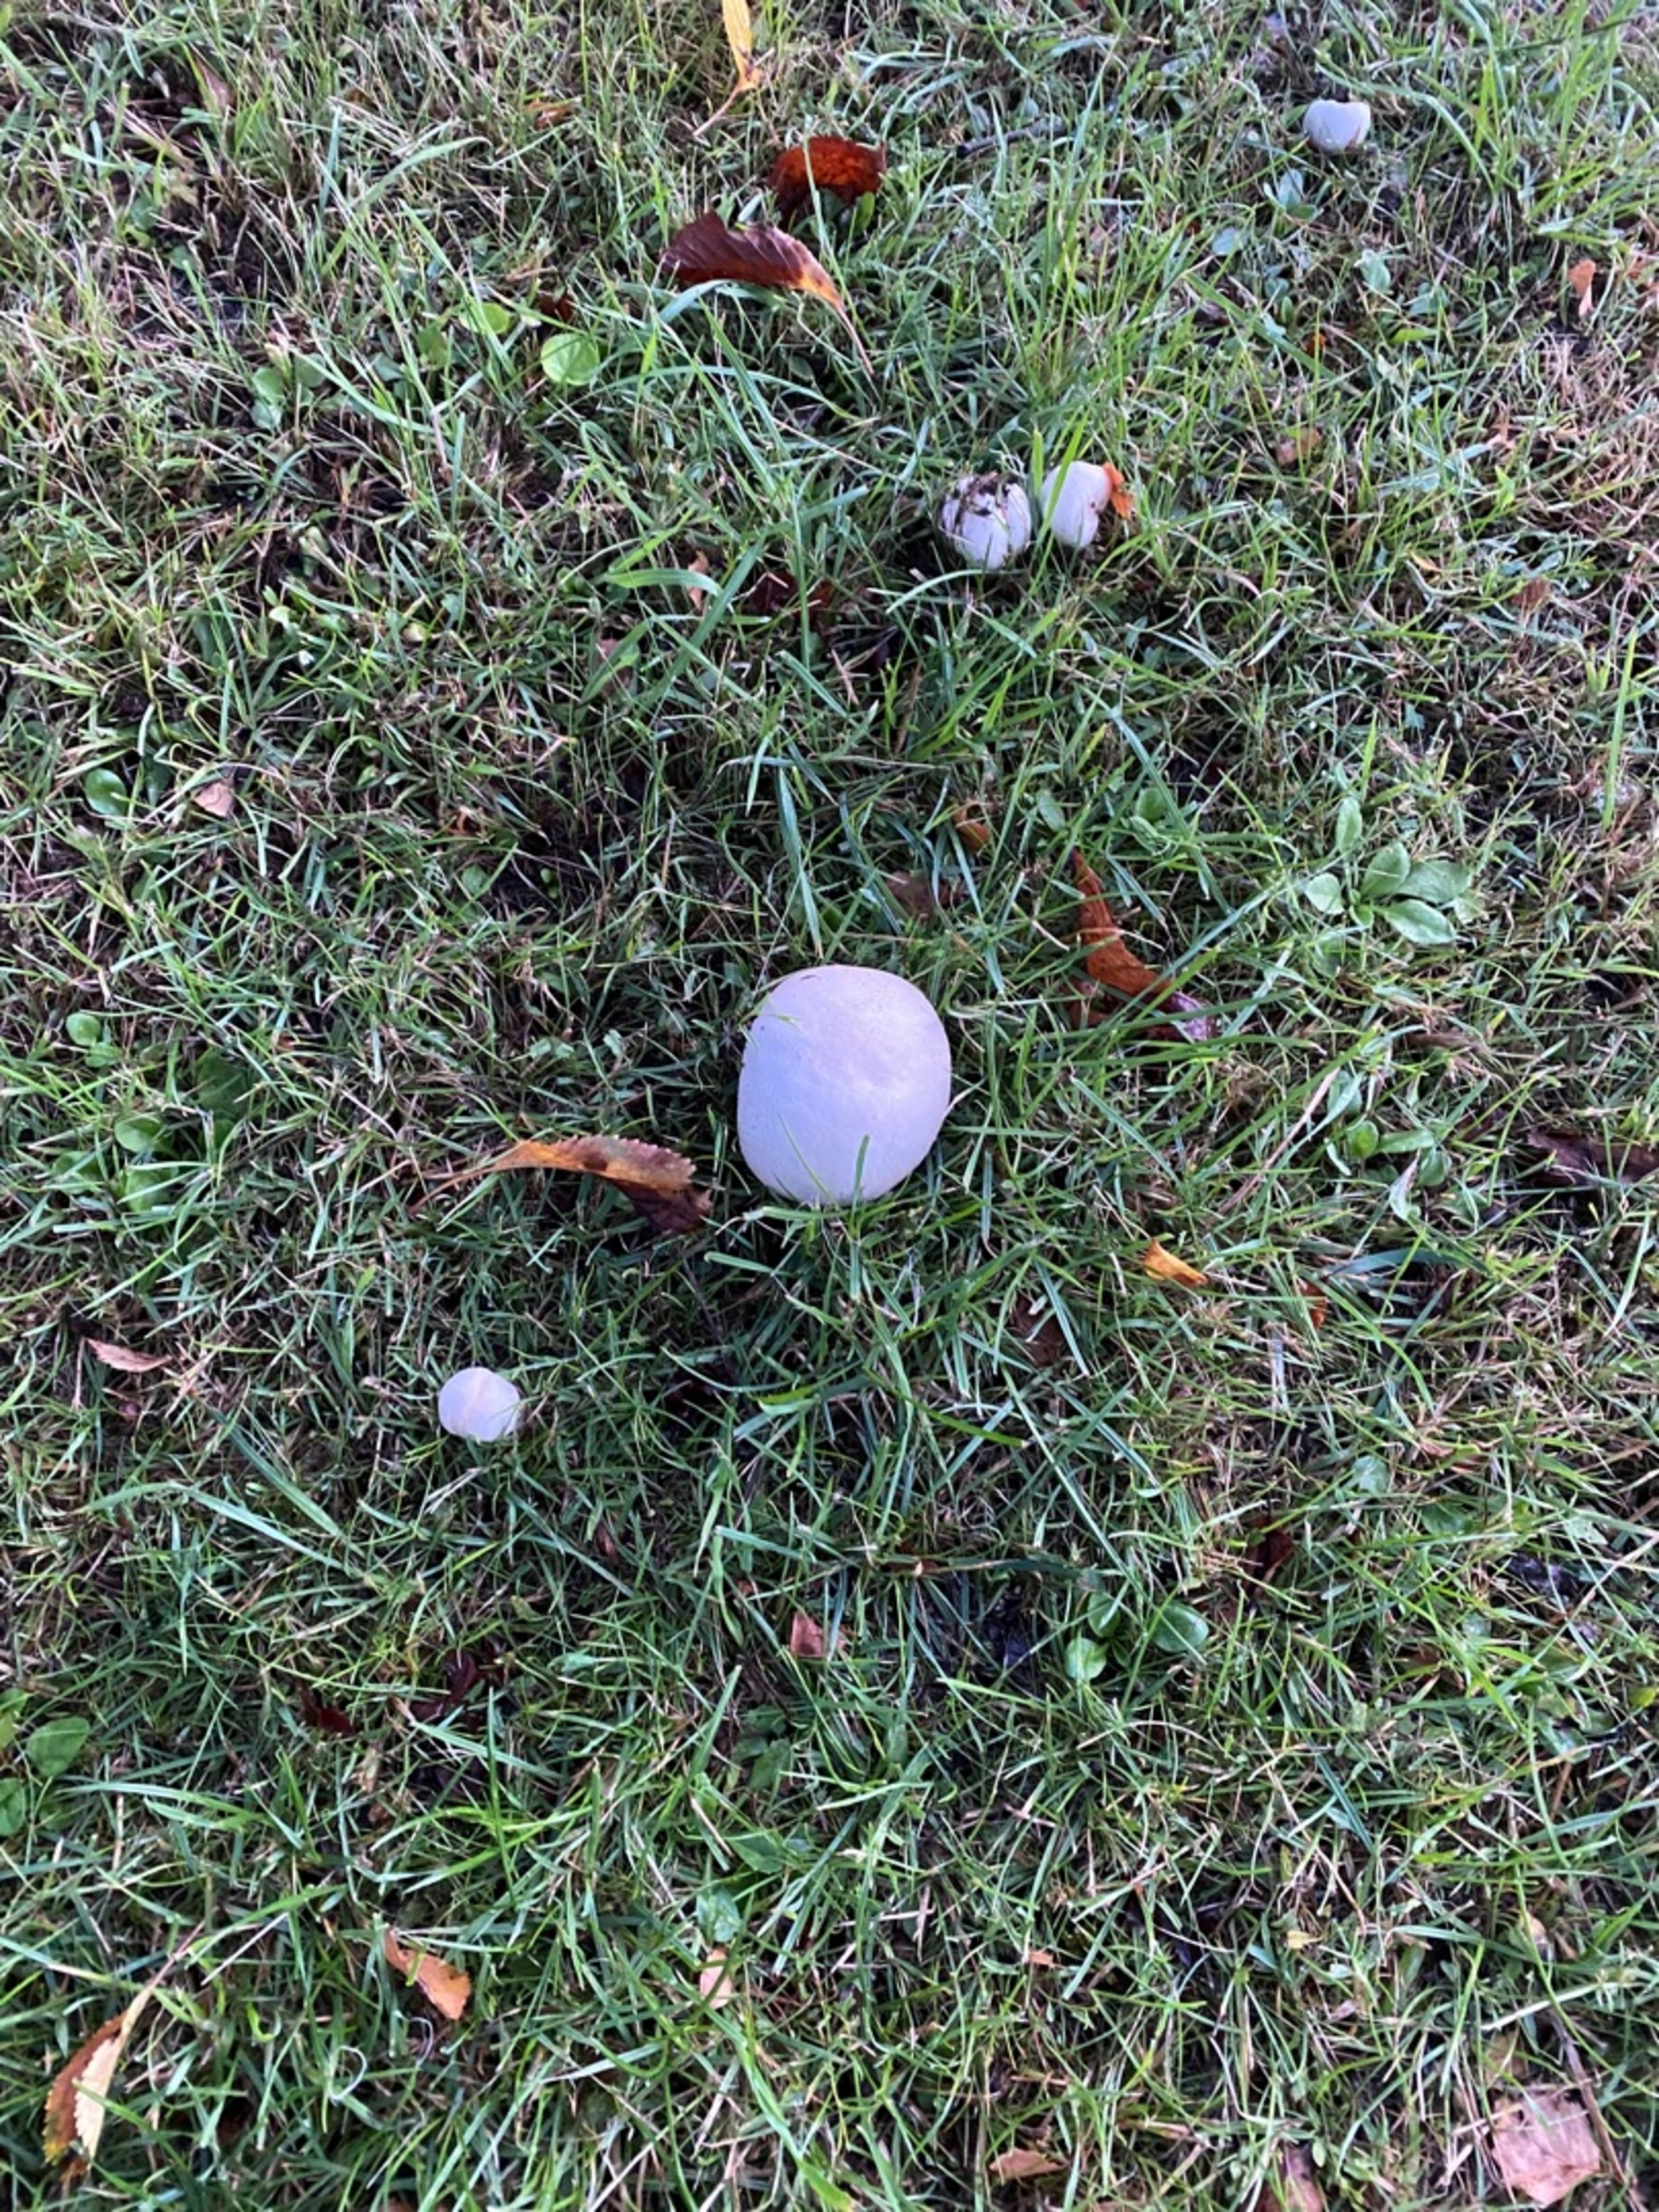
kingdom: Fungi
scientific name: Fungi
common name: Svamperiget
